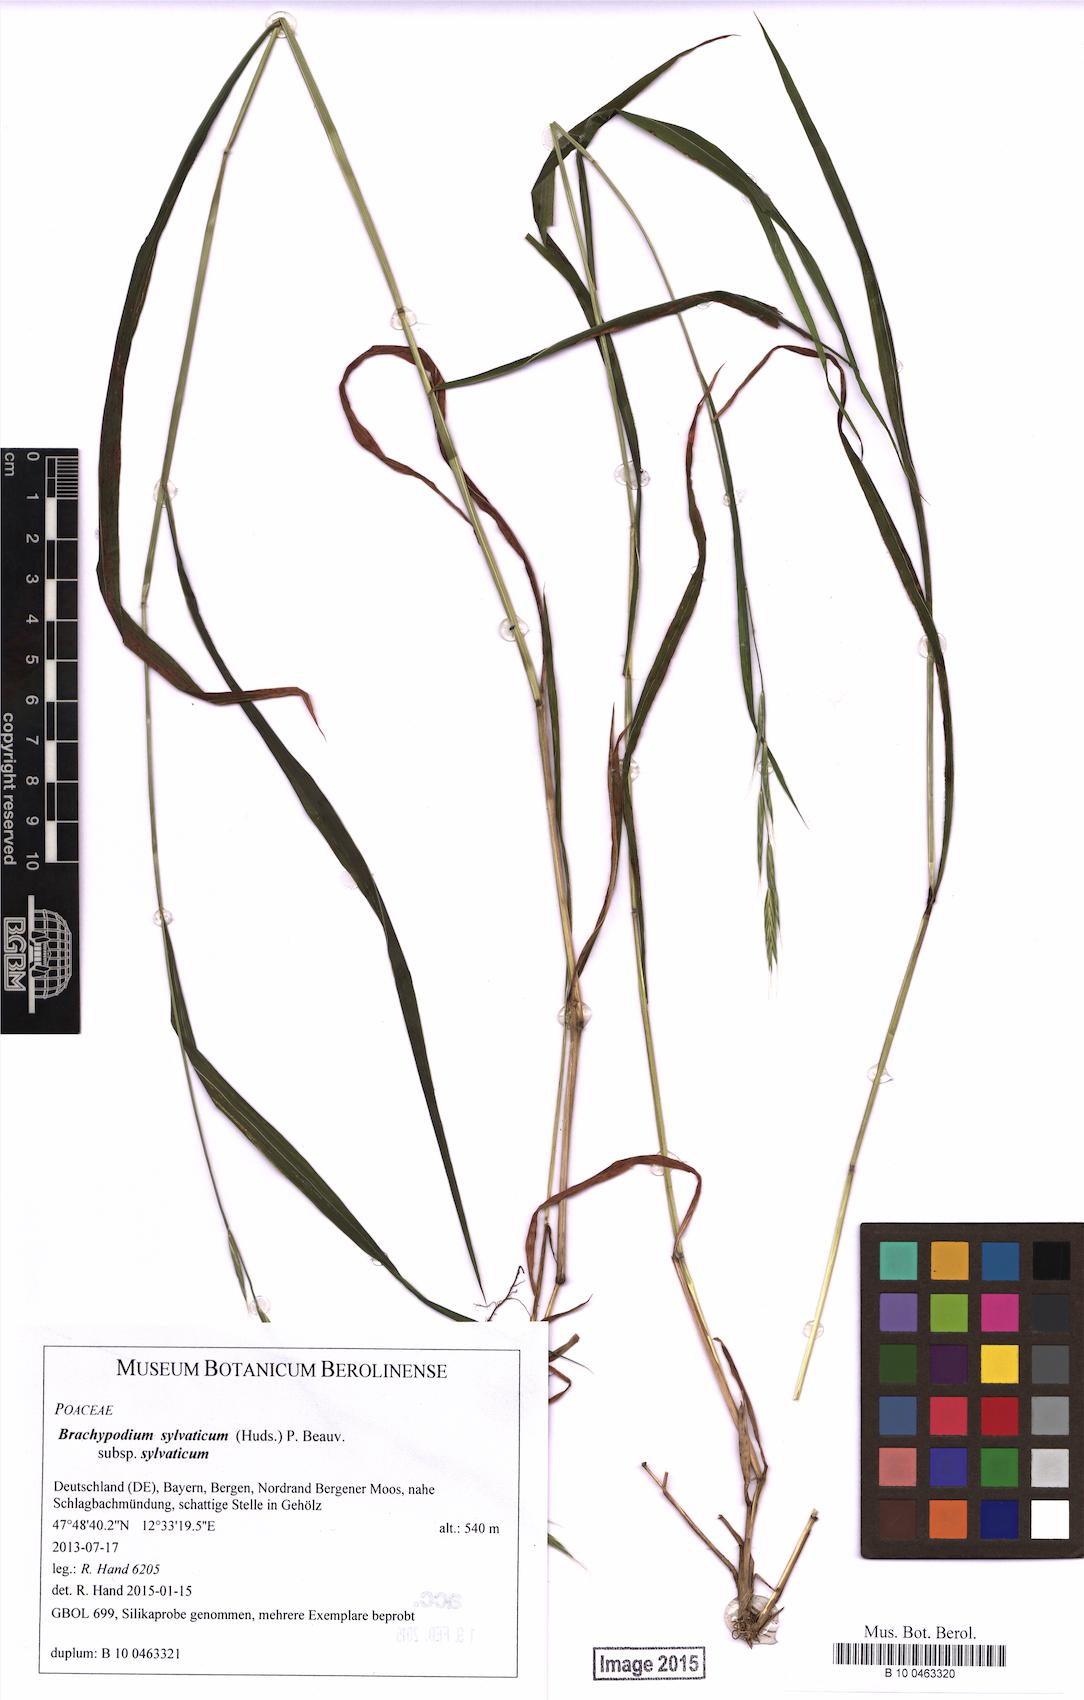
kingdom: Plantae
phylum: Tracheophyta
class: Liliopsida
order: Poales
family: Poaceae
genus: Brachypodium
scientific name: Brachypodium sylvaticum
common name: False-brome
